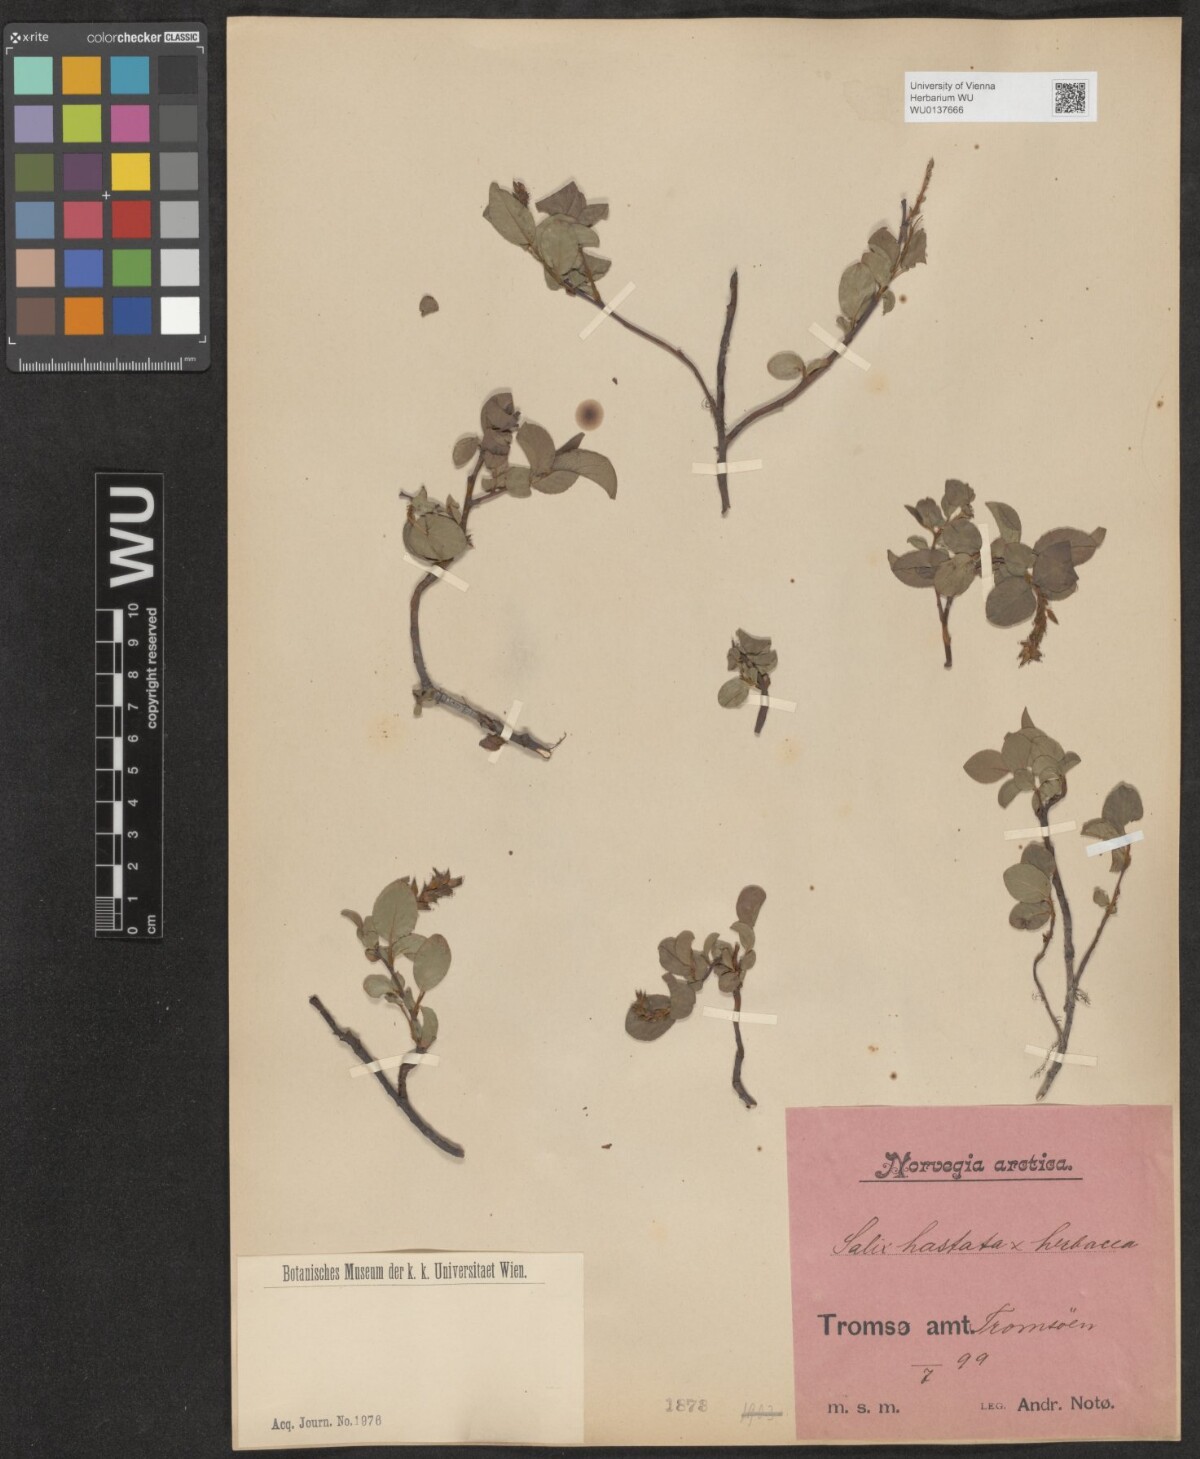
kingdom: Plantae
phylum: Tracheophyta
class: Magnoliopsida
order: Malpighiales
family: Salicaceae
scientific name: Salicaceae
